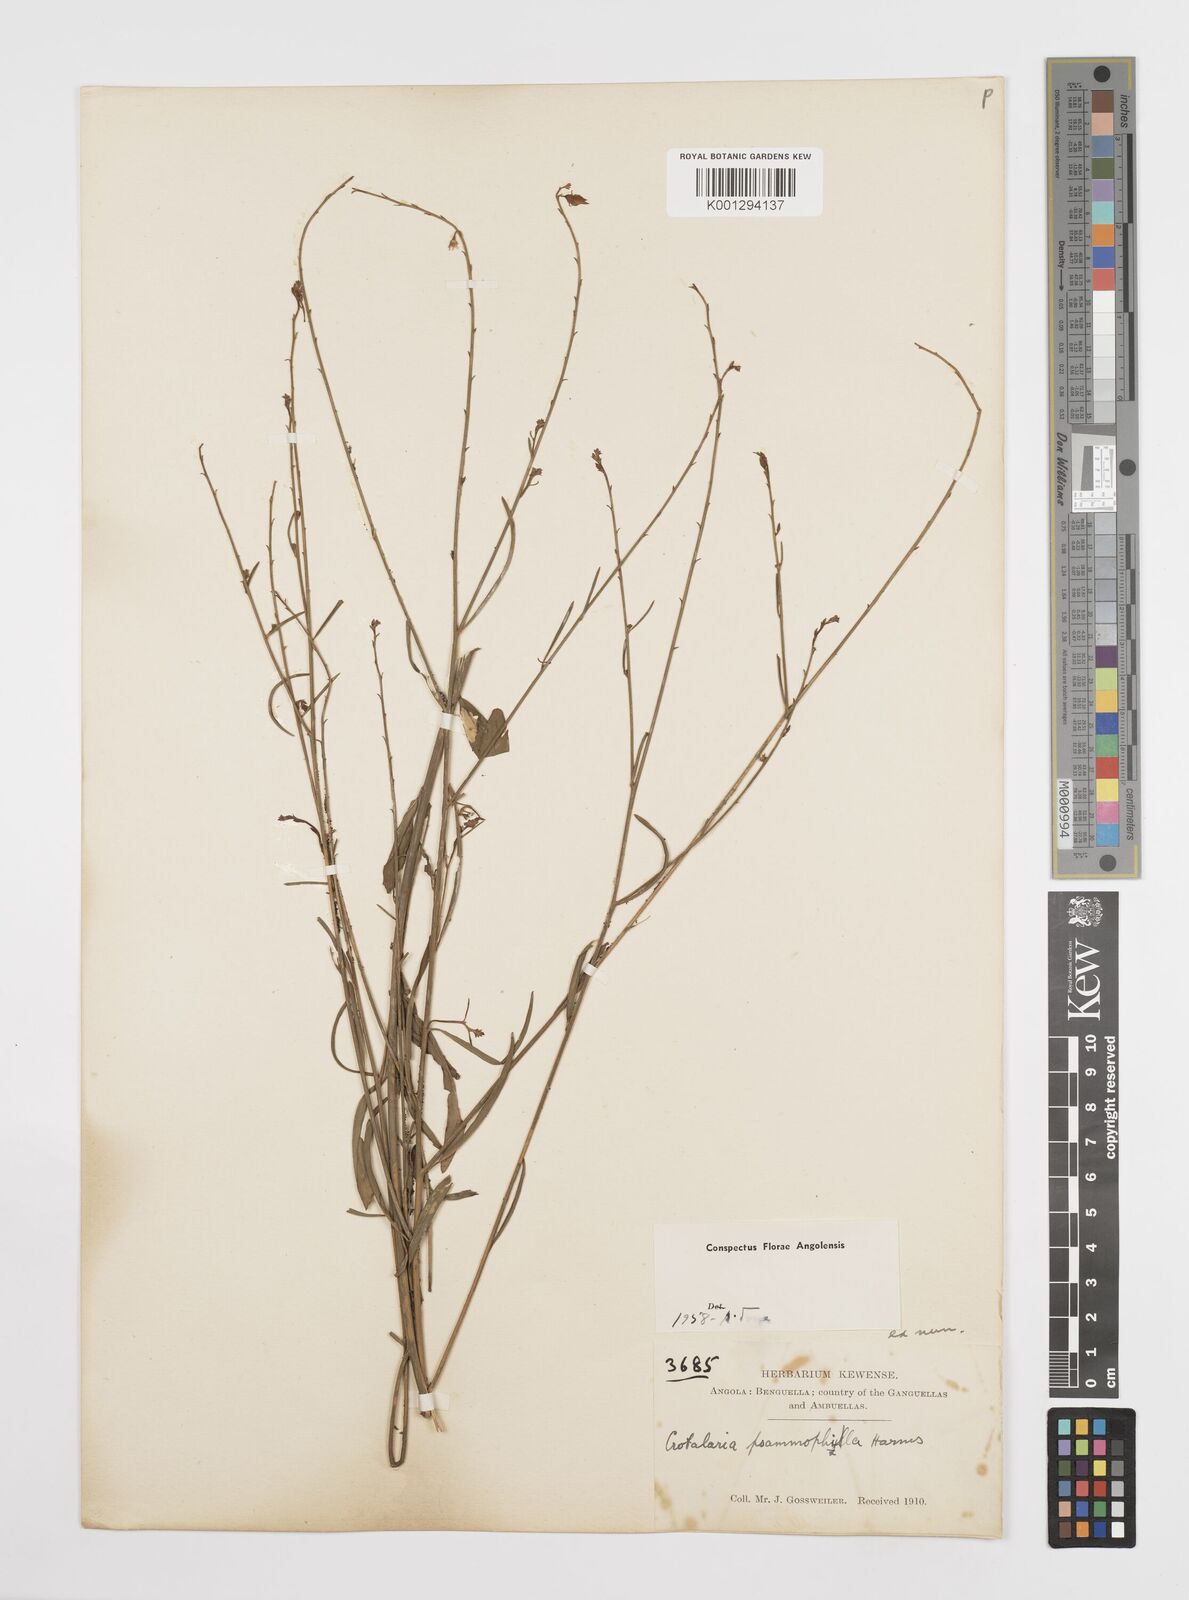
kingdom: Plantae
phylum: Tracheophyta
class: Magnoliopsida
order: Fabales
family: Fabaceae
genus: Crotalaria
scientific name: Crotalaria psammophila
